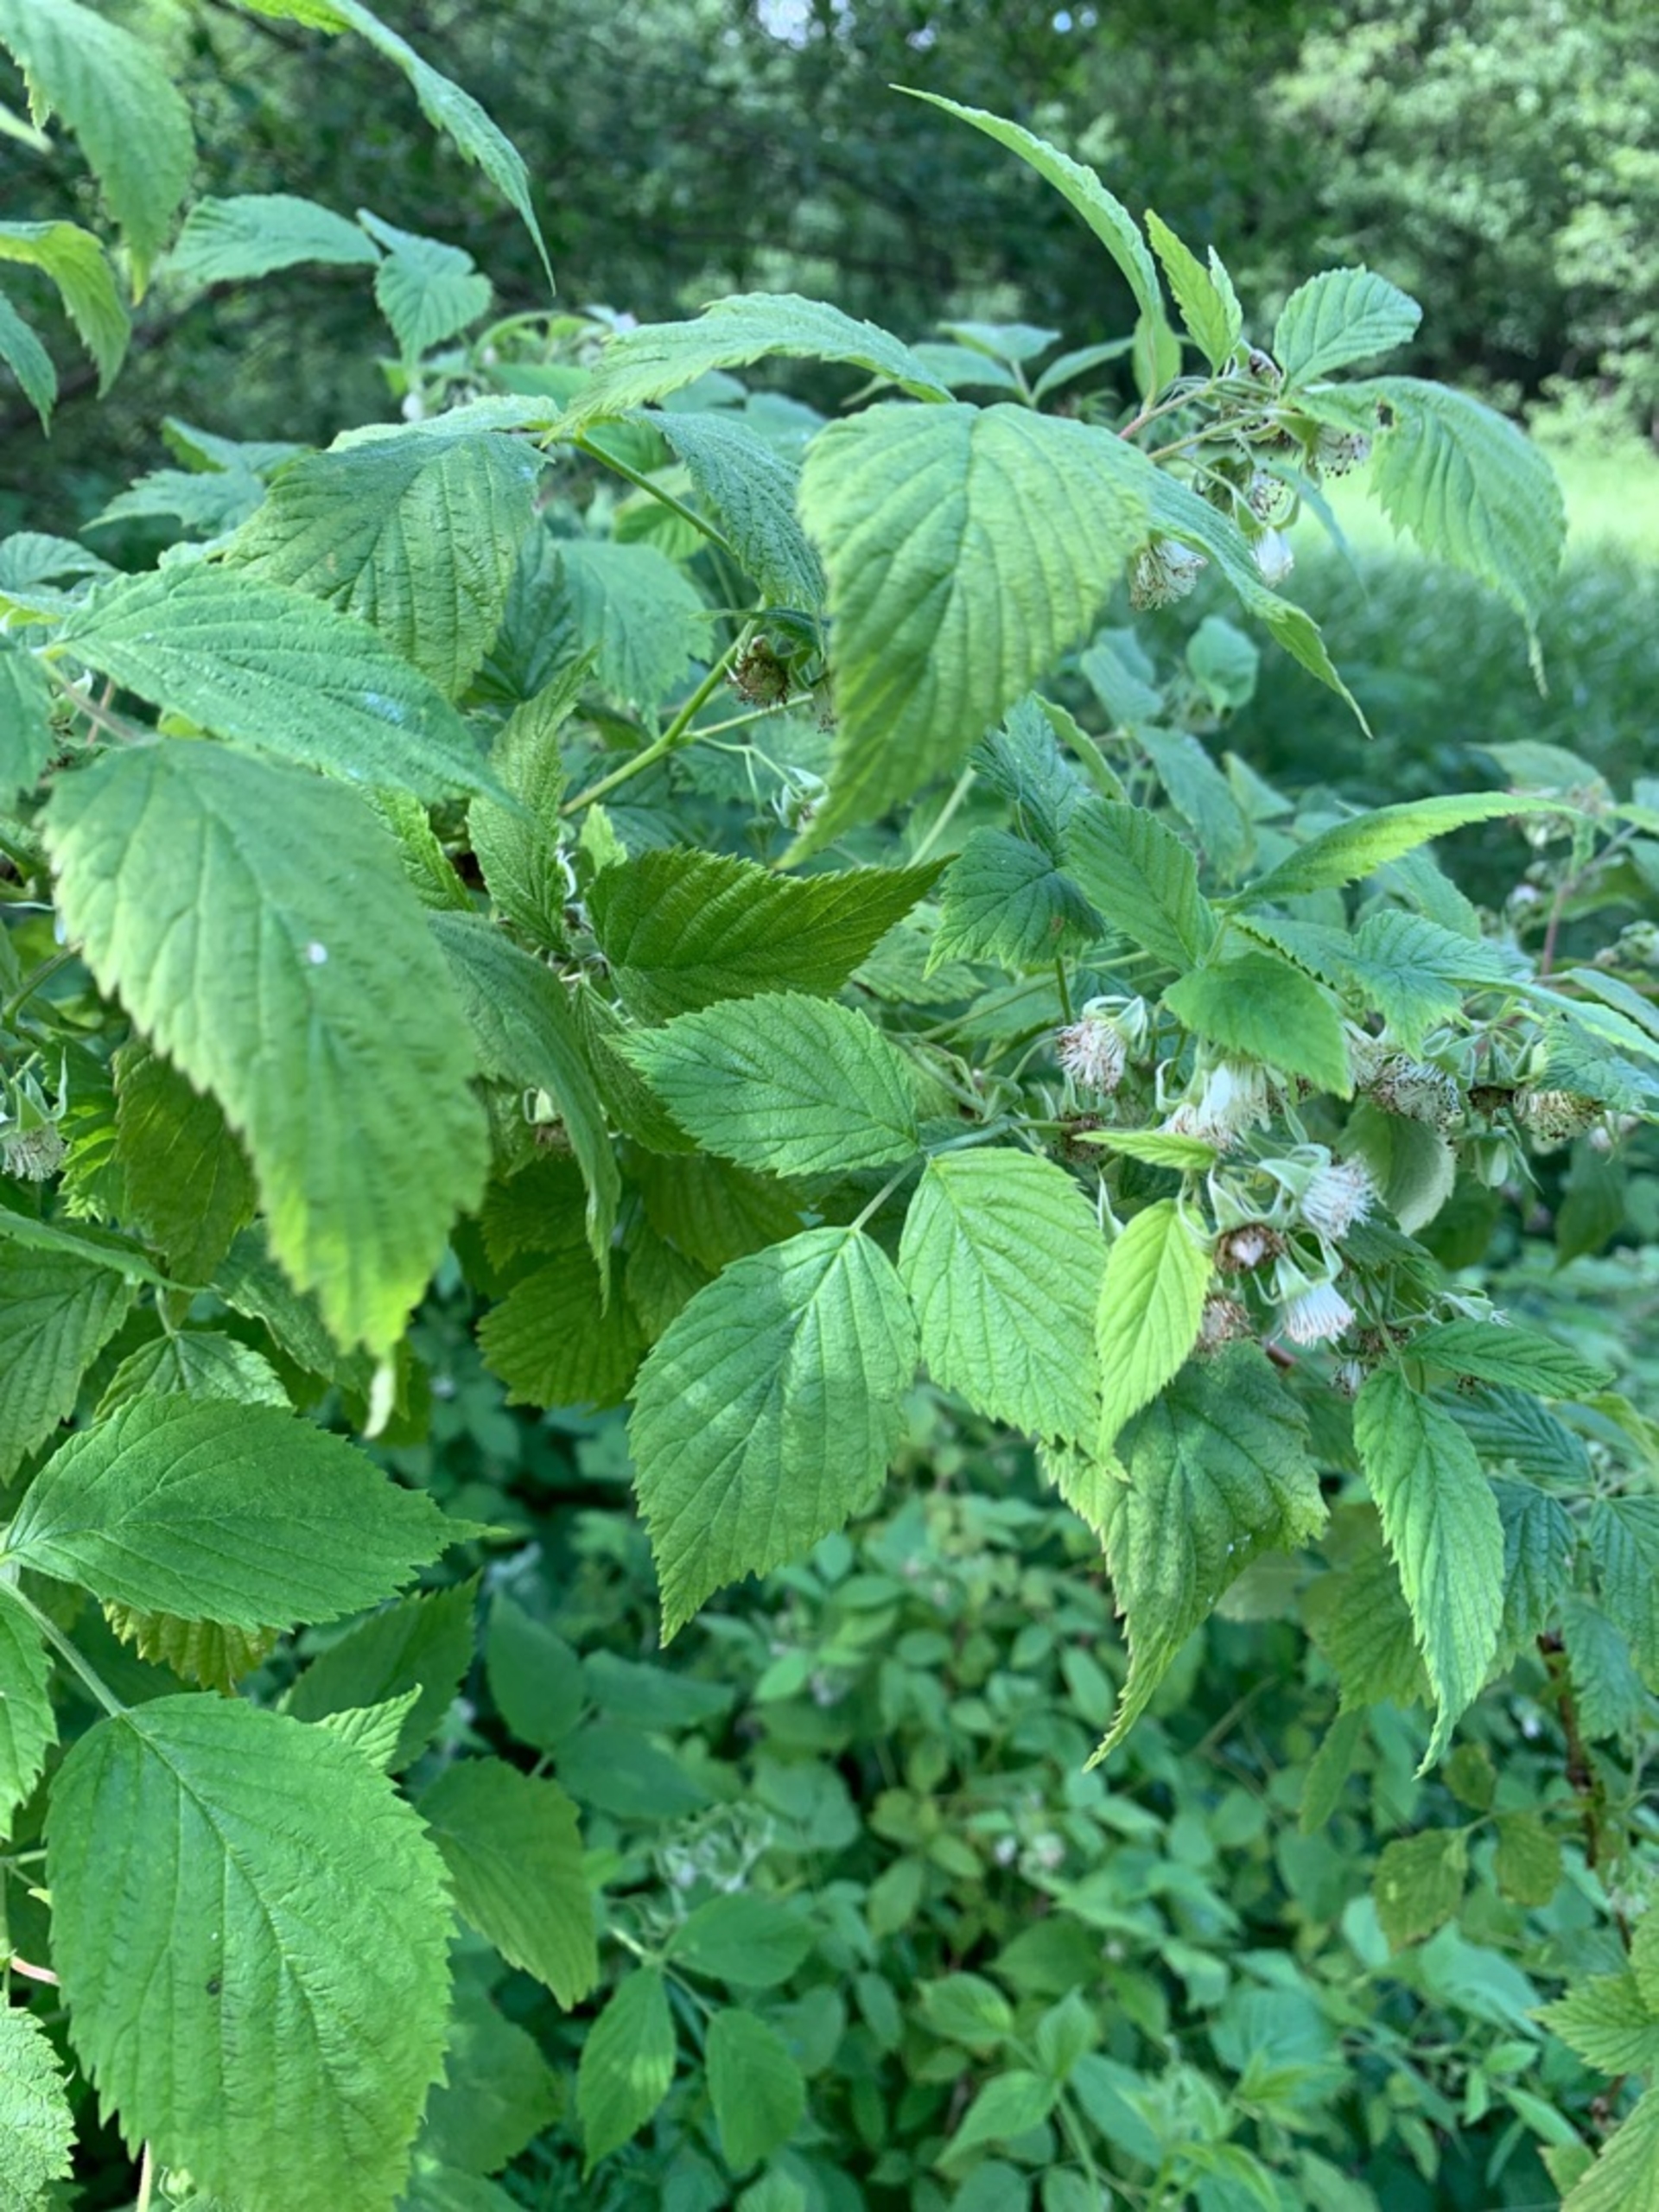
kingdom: Plantae
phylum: Tracheophyta
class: Magnoliopsida
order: Rosales
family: Rosaceae
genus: Rubus
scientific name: Rubus idaeus
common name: Hindbær
